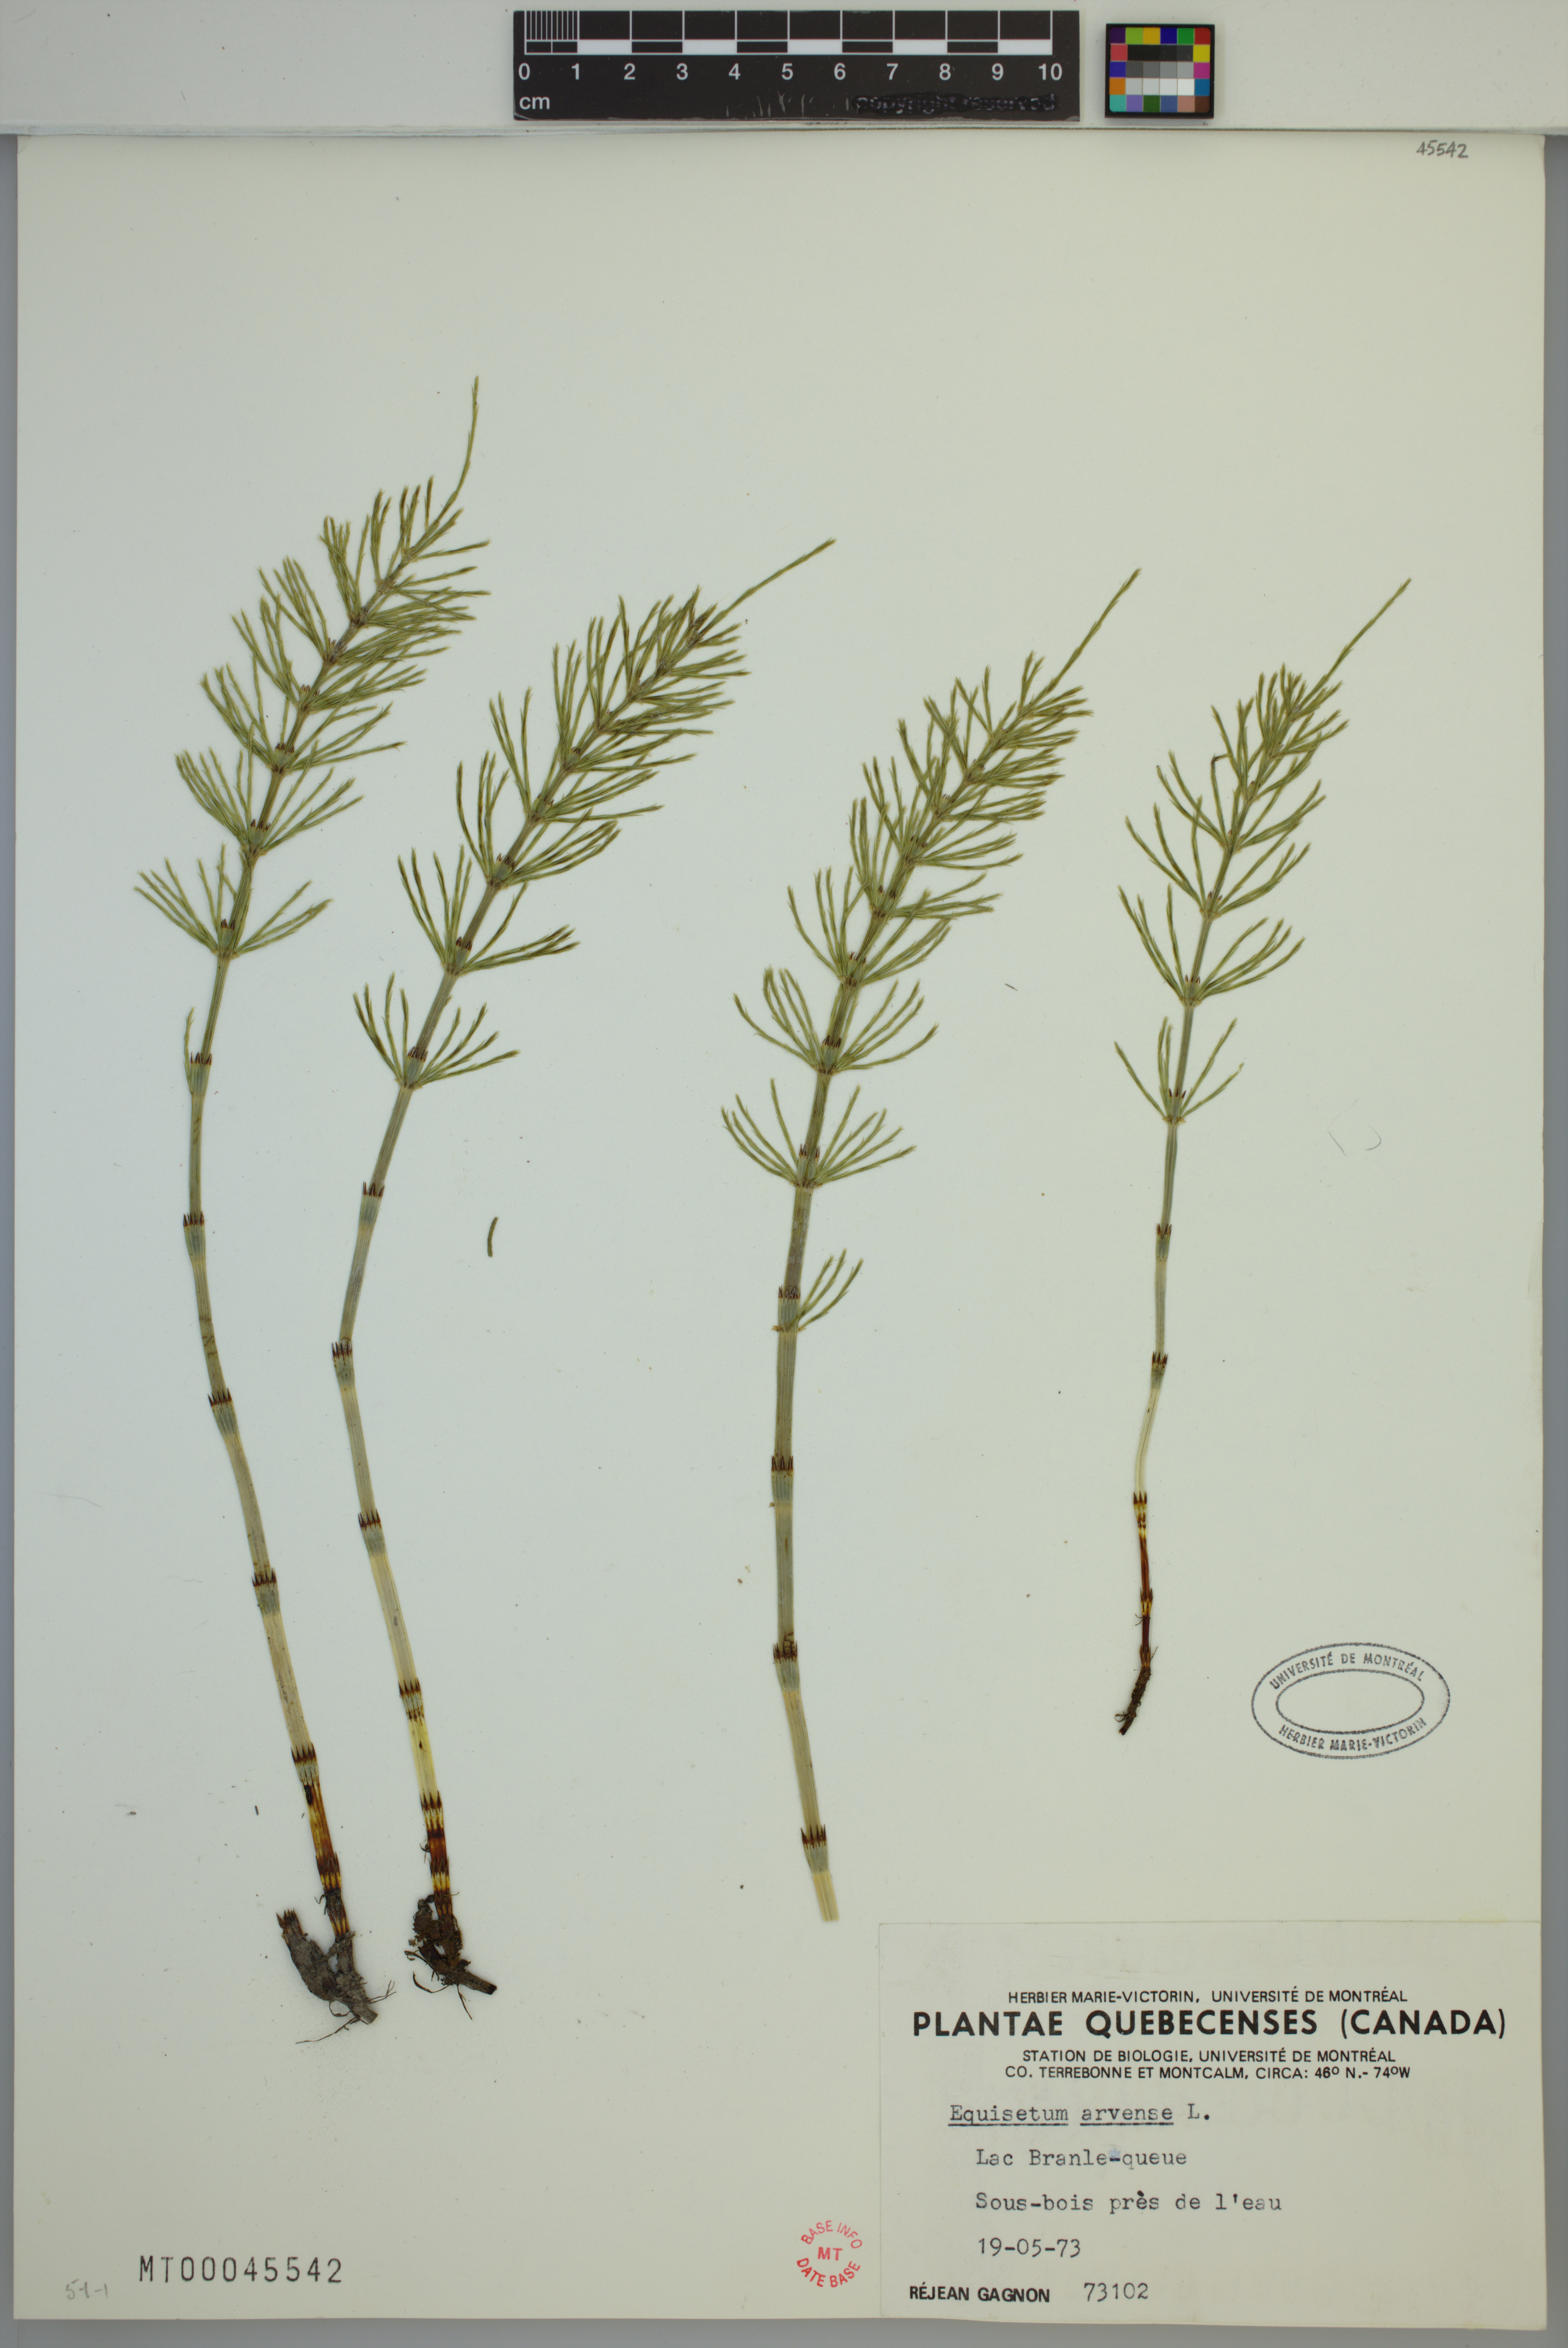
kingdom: Plantae
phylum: Tracheophyta
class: Polypodiopsida
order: Equisetales
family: Equisetaceae
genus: Equisetum
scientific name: Equisetum arvense
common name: Field horsetail
